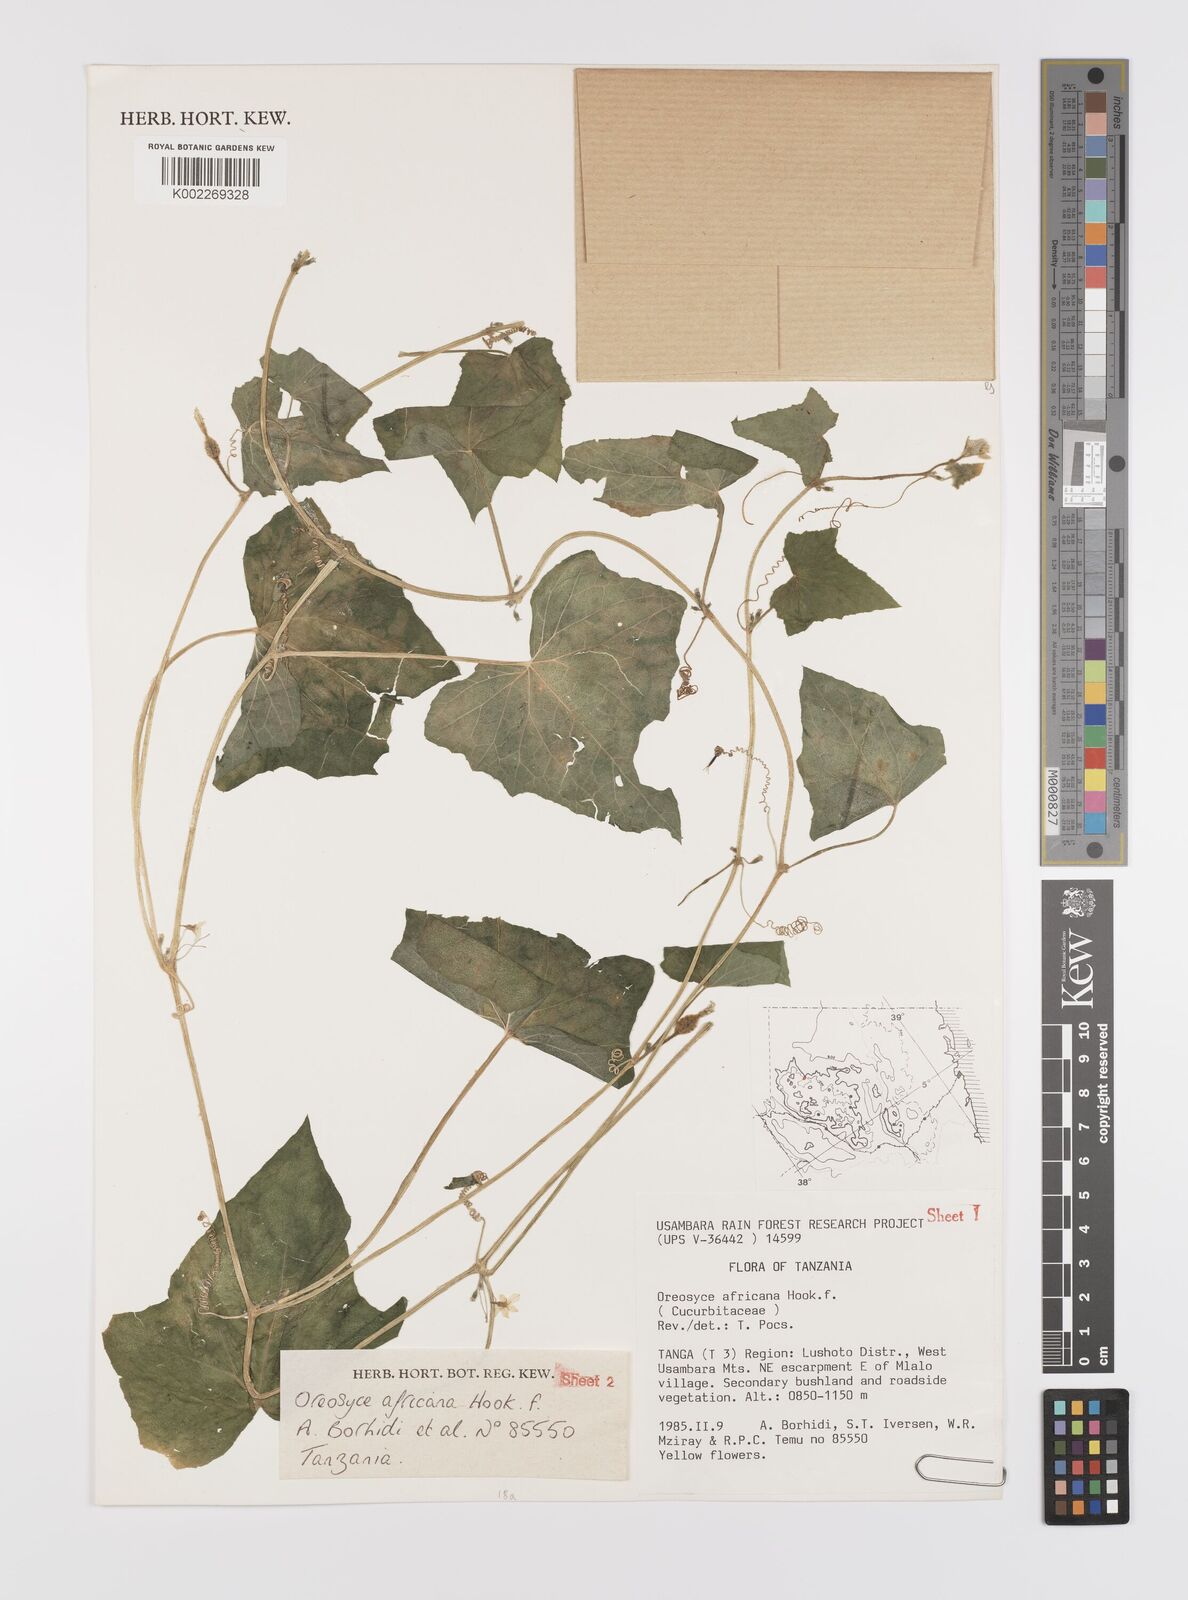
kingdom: Plantae
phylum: Tracheophyta
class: Magnoliopsida
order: Cucurbitales
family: Cucurbitaceae
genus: Cucumis
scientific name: Cucumis oreosyce
